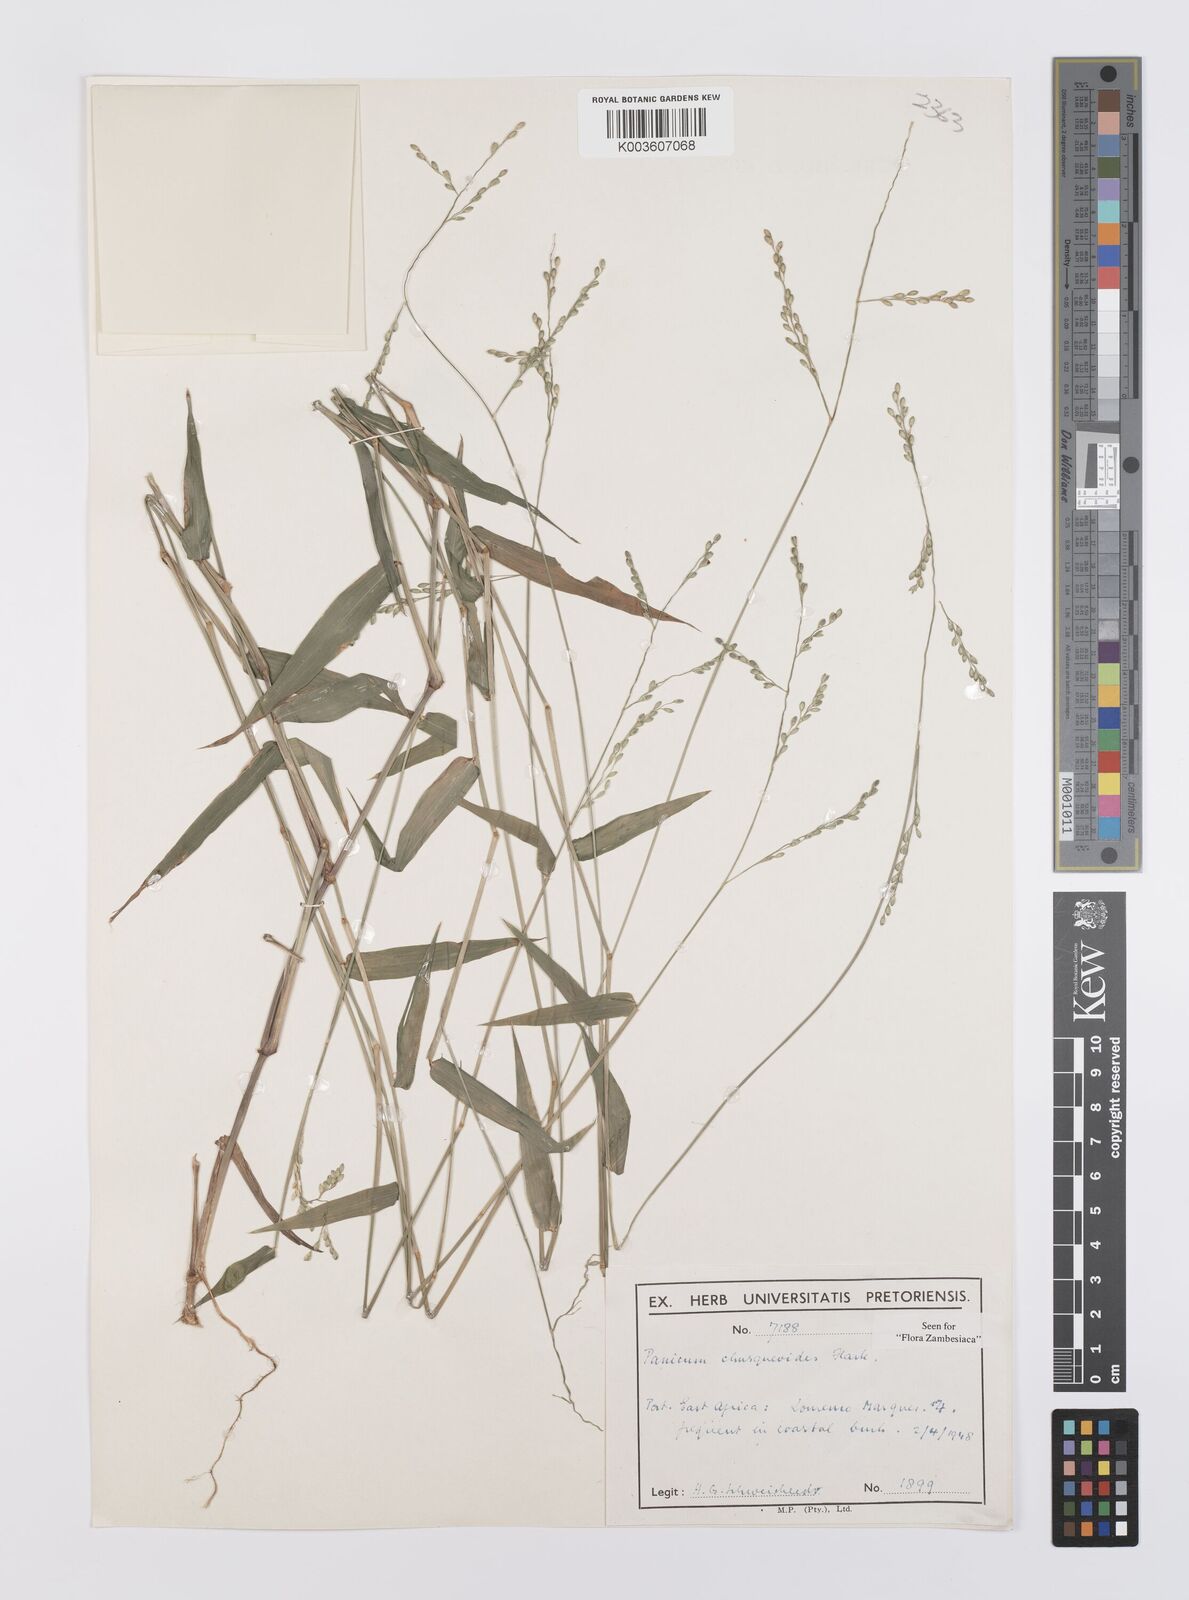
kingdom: Plantae
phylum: Tracheophyta
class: Liliopsida
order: Poales
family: Poaceae
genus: Urochloa
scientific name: Urochloa chusqueoides
